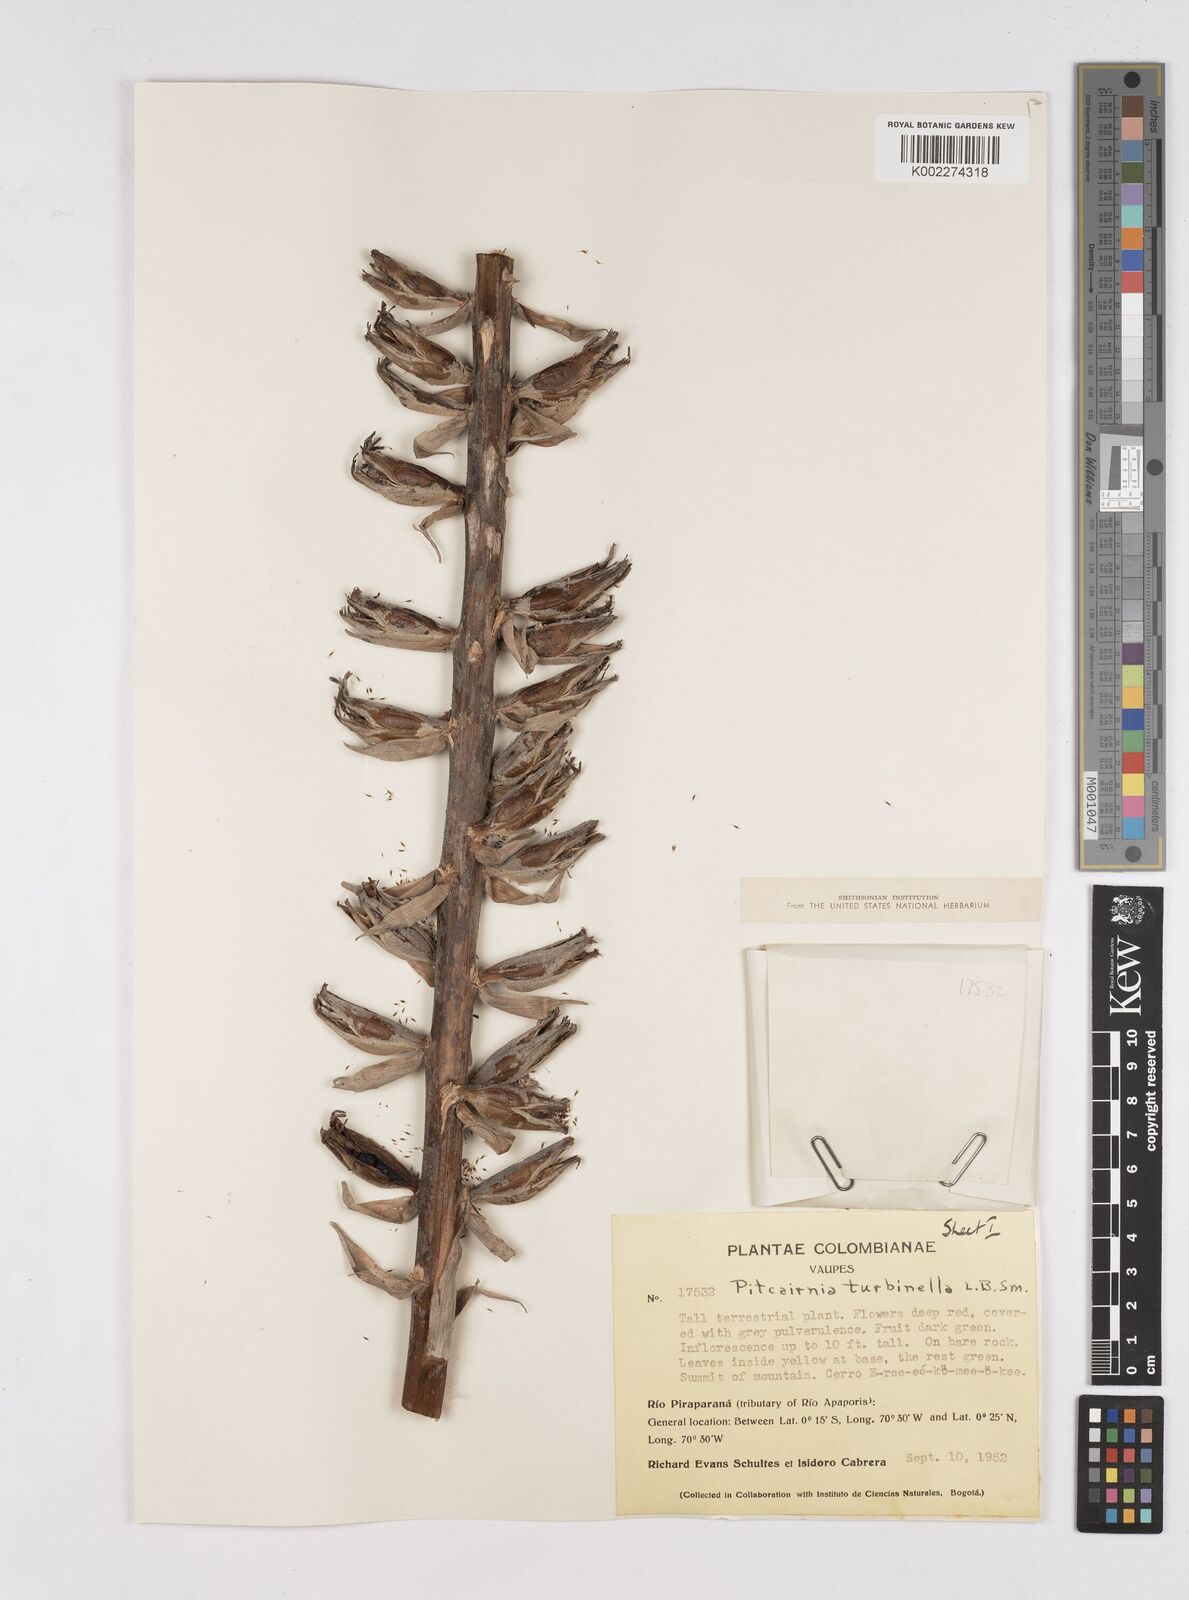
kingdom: Plantae
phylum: Tracheophyta
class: Liliopsida
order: Poales
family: Bromeliaceae
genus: Pitcairnia
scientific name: Pitcairnia turbinella
